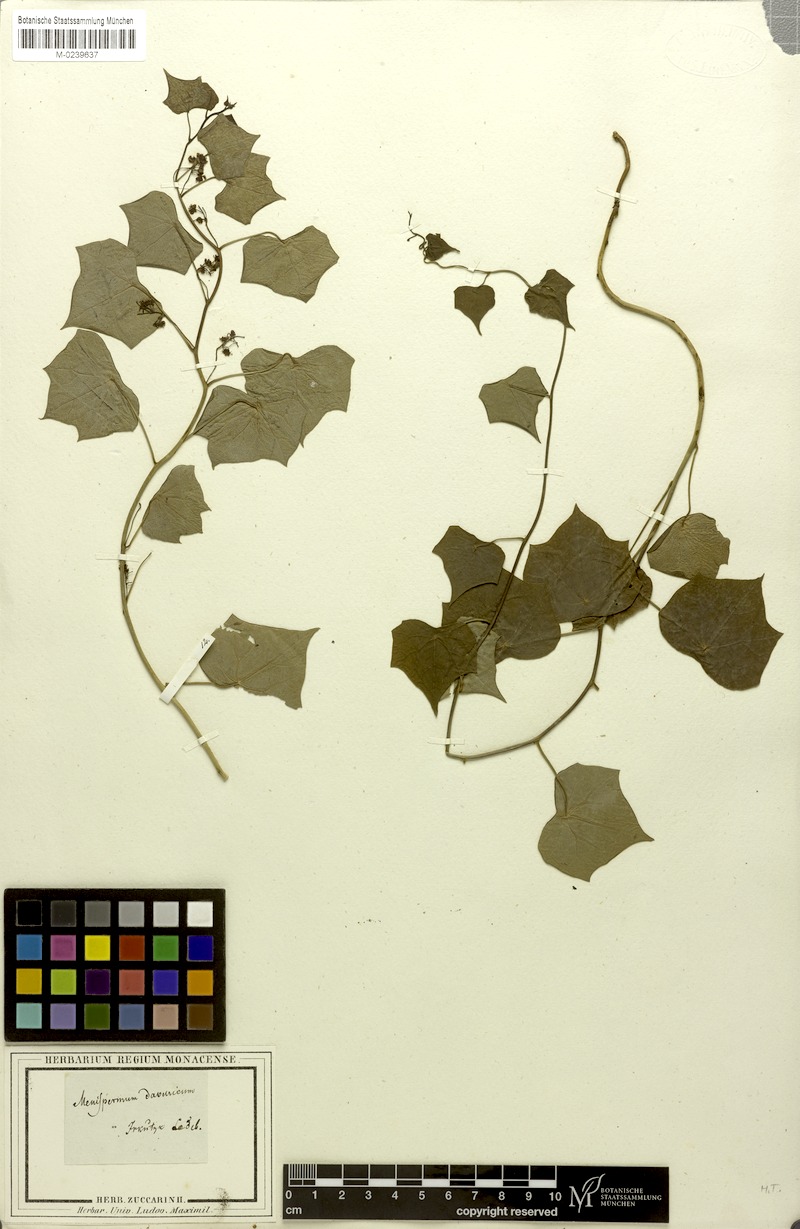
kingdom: Plantae
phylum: Tracheophyta
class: Magnoliopsida
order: Ranunculales
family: Menispermaceae
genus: Menispermum
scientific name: Menispermum dauricum
